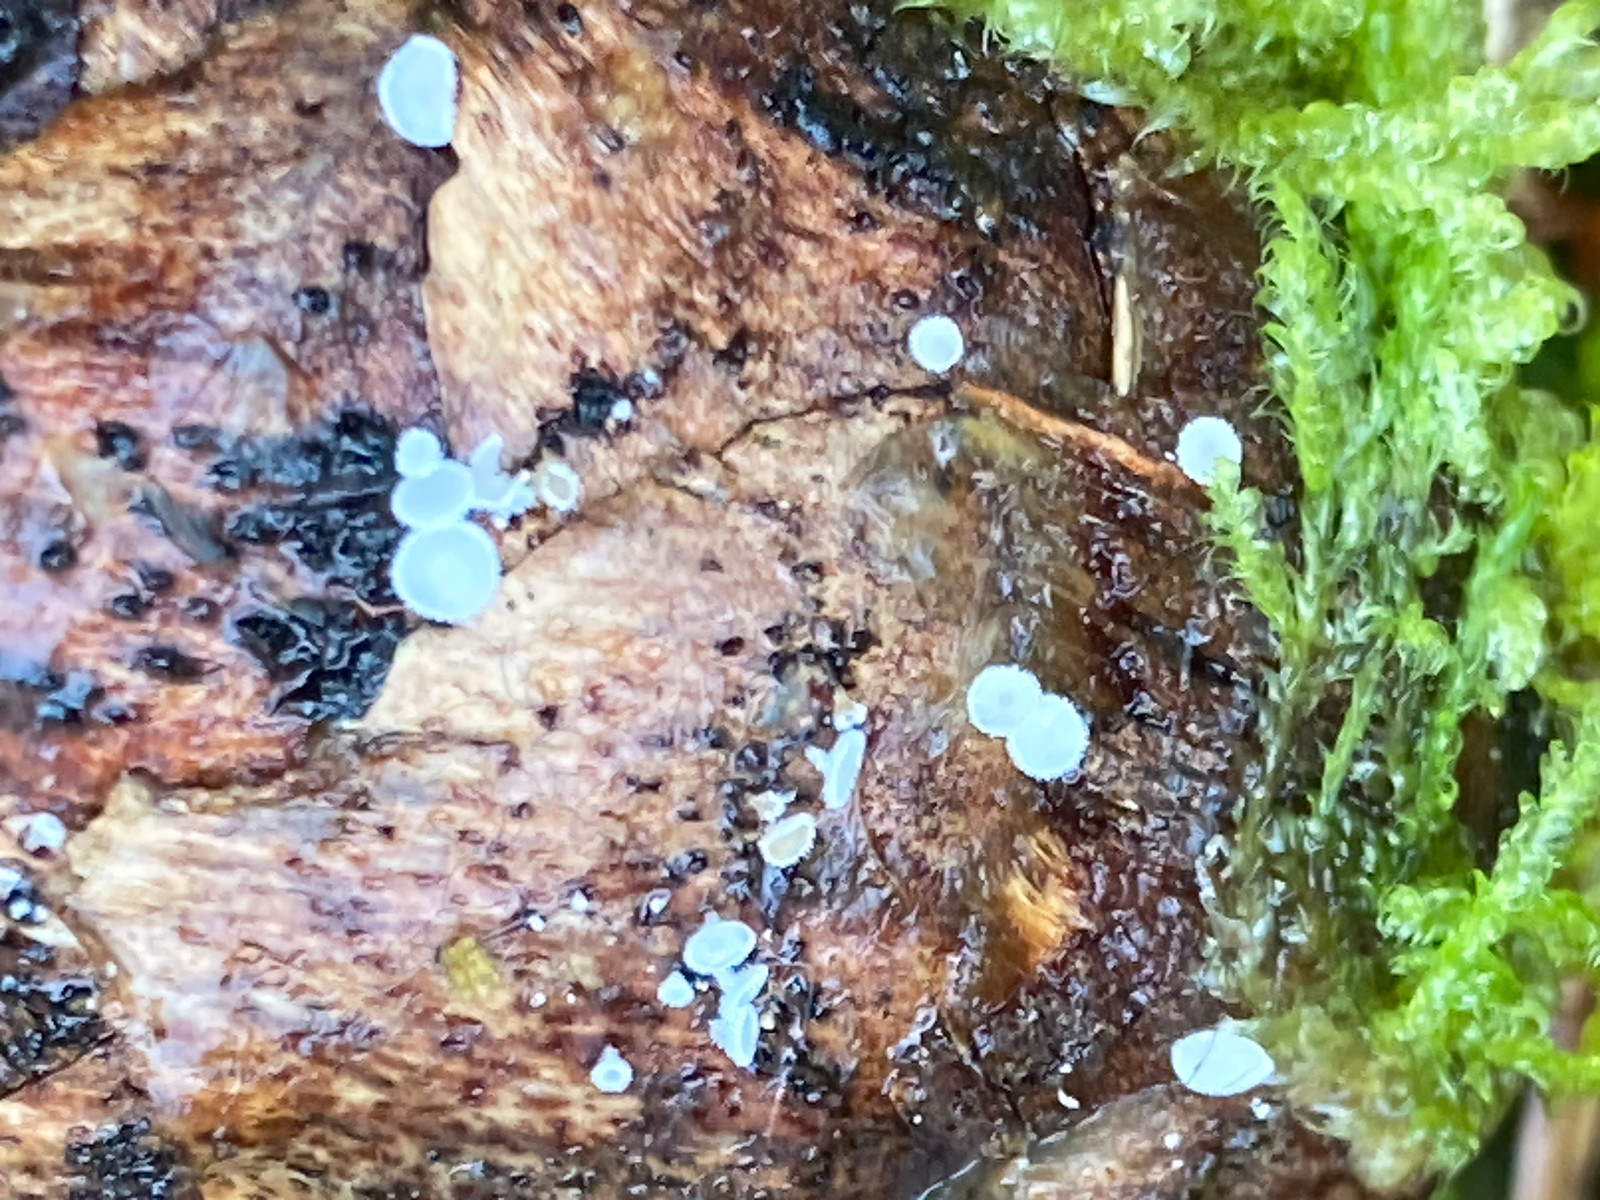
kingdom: Fungi
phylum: Ascomycota
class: Leotiomycetes
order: Helotiales
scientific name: Helotiales
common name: stilkskiveordenen
